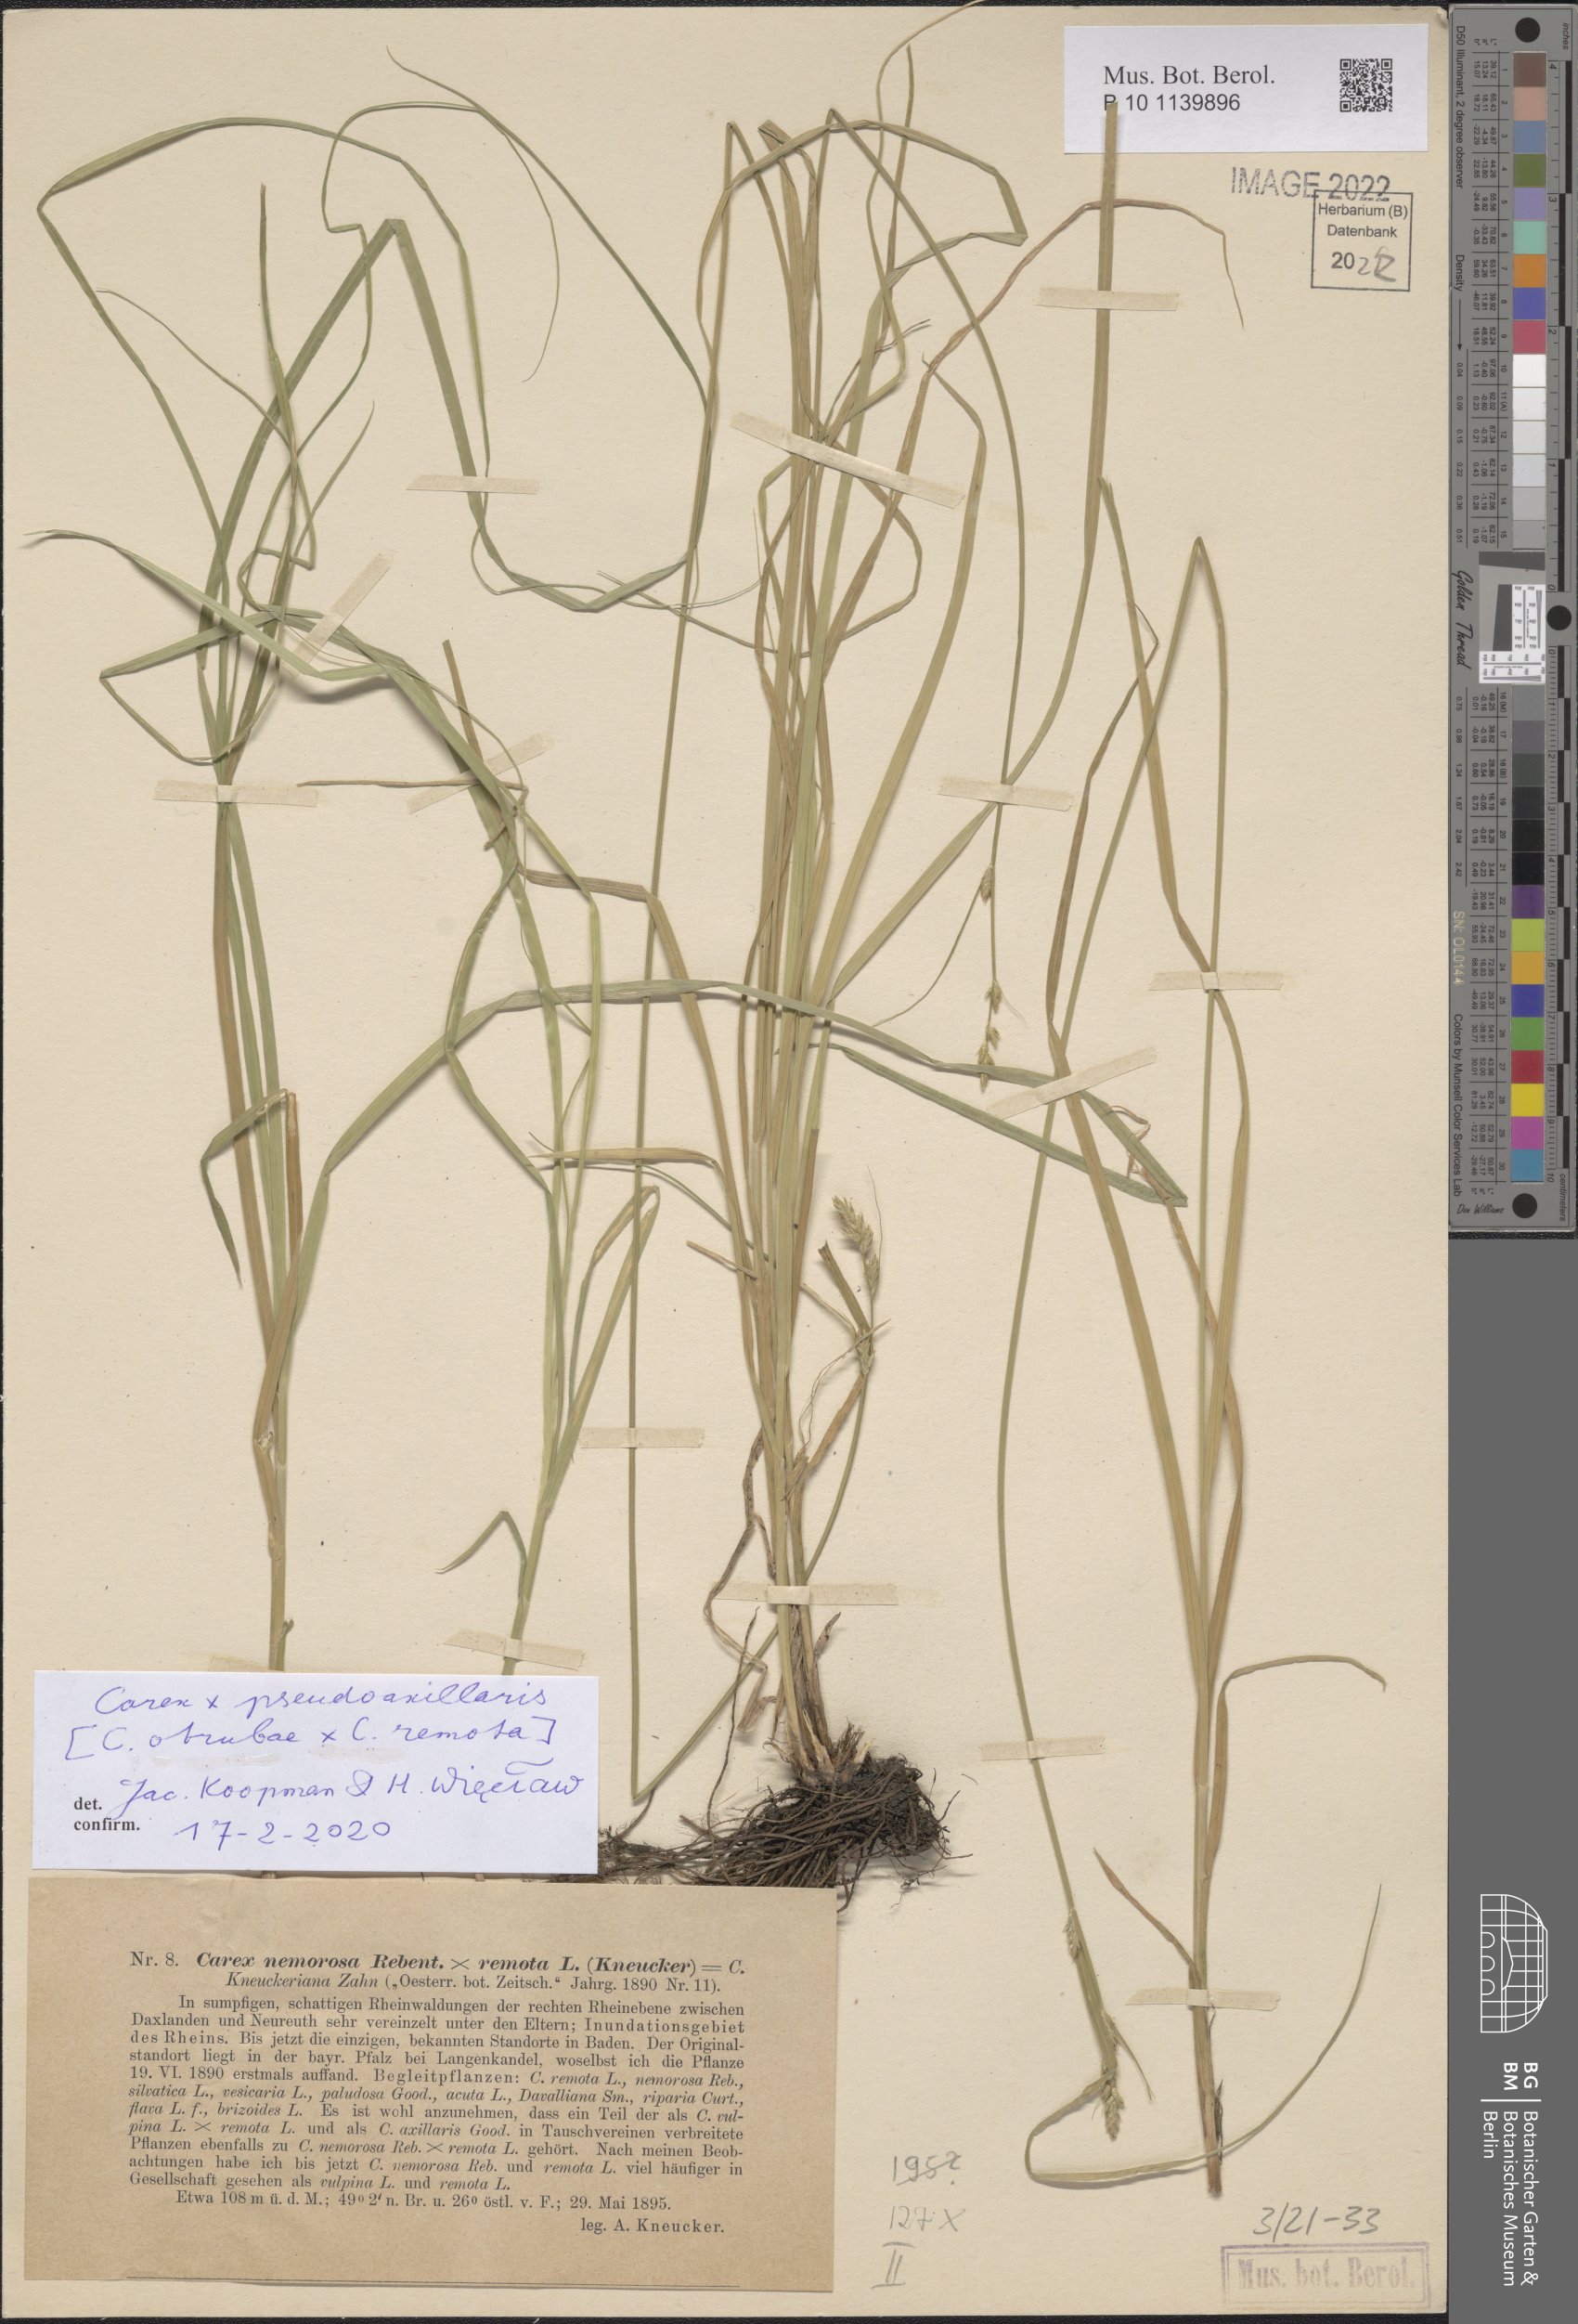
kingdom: Plantae
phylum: Tracheophyta
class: Liliopsida
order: Poales
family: Cyperaceae
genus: Carex
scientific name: Carex pseudoaxillaris
